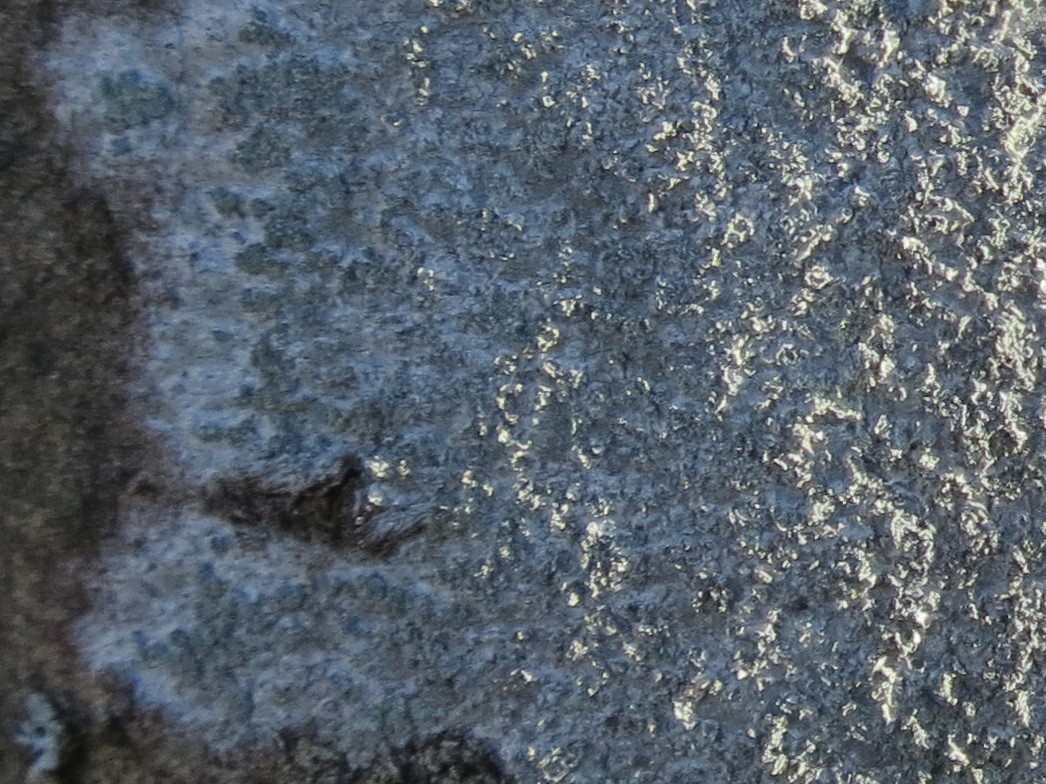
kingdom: Fungi
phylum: Ascomycota
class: Lecanoromycetes
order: Caliciales
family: Caliciaceae
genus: Buellia
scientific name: Buellia griseovirens
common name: grågrøn sortskivelav
